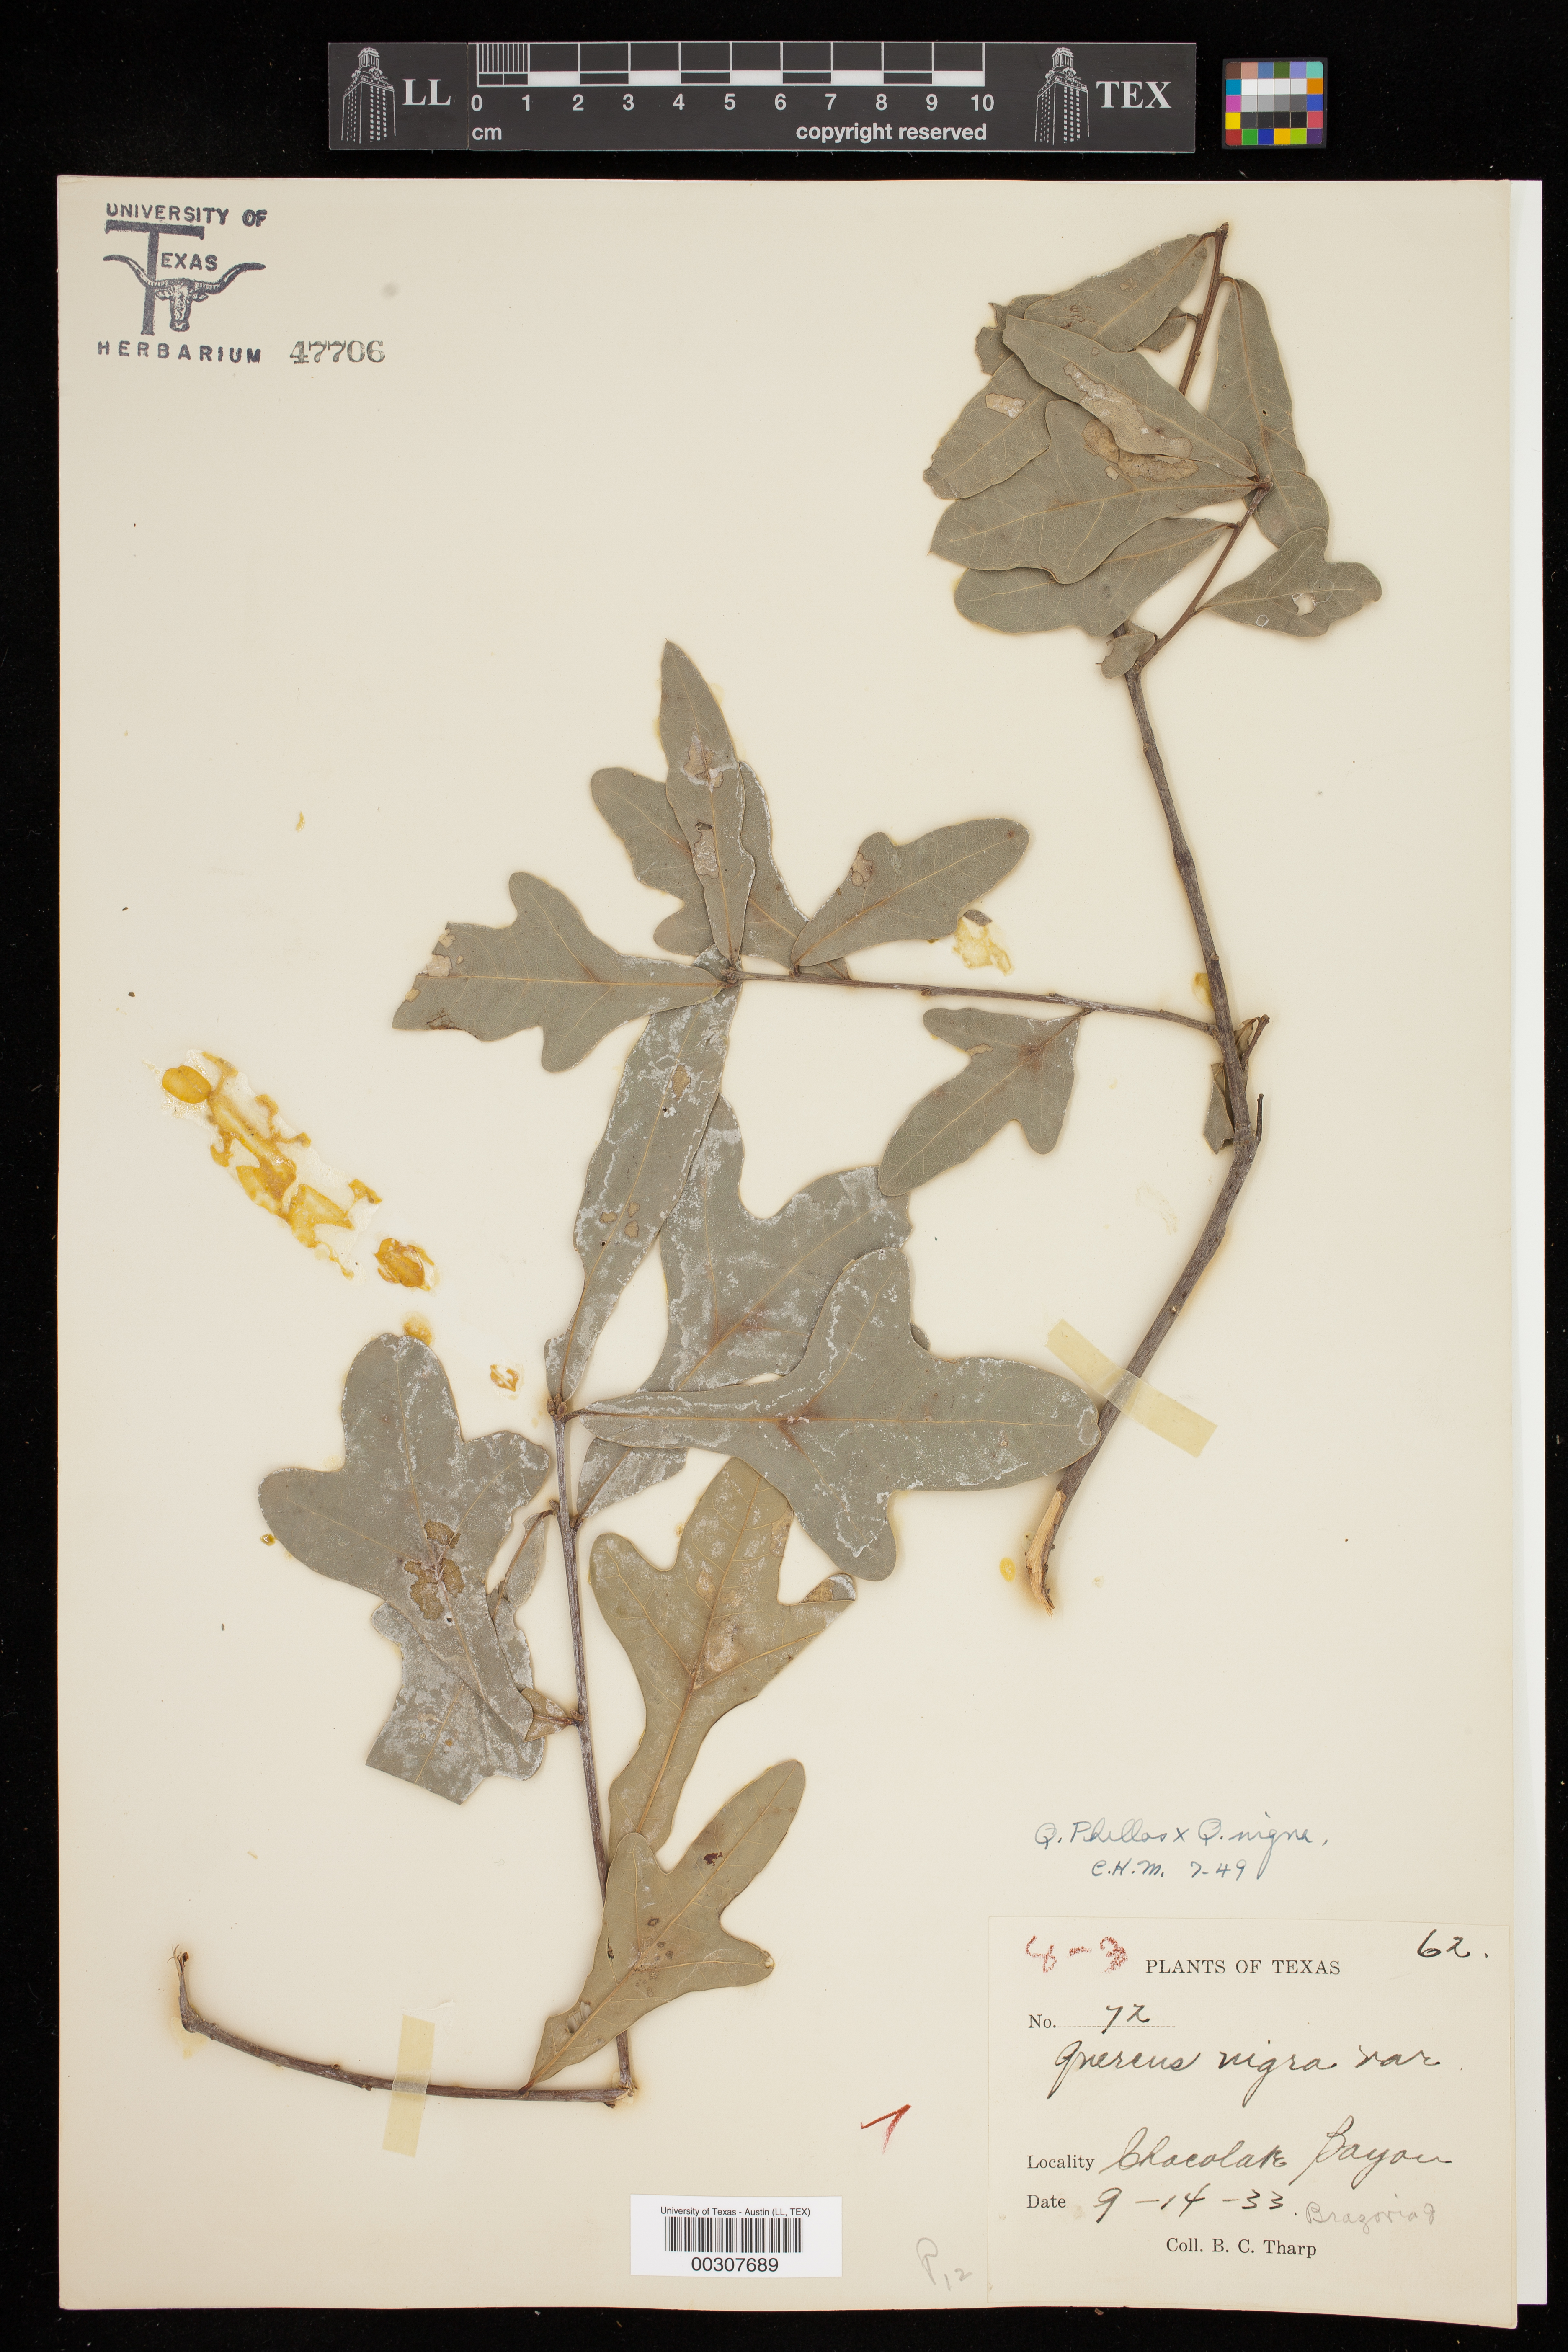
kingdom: Plantae
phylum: Tracheophyta
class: Magnoliopsida
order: Fagales
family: Fagaceae
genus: Quercus
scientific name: Quercus
